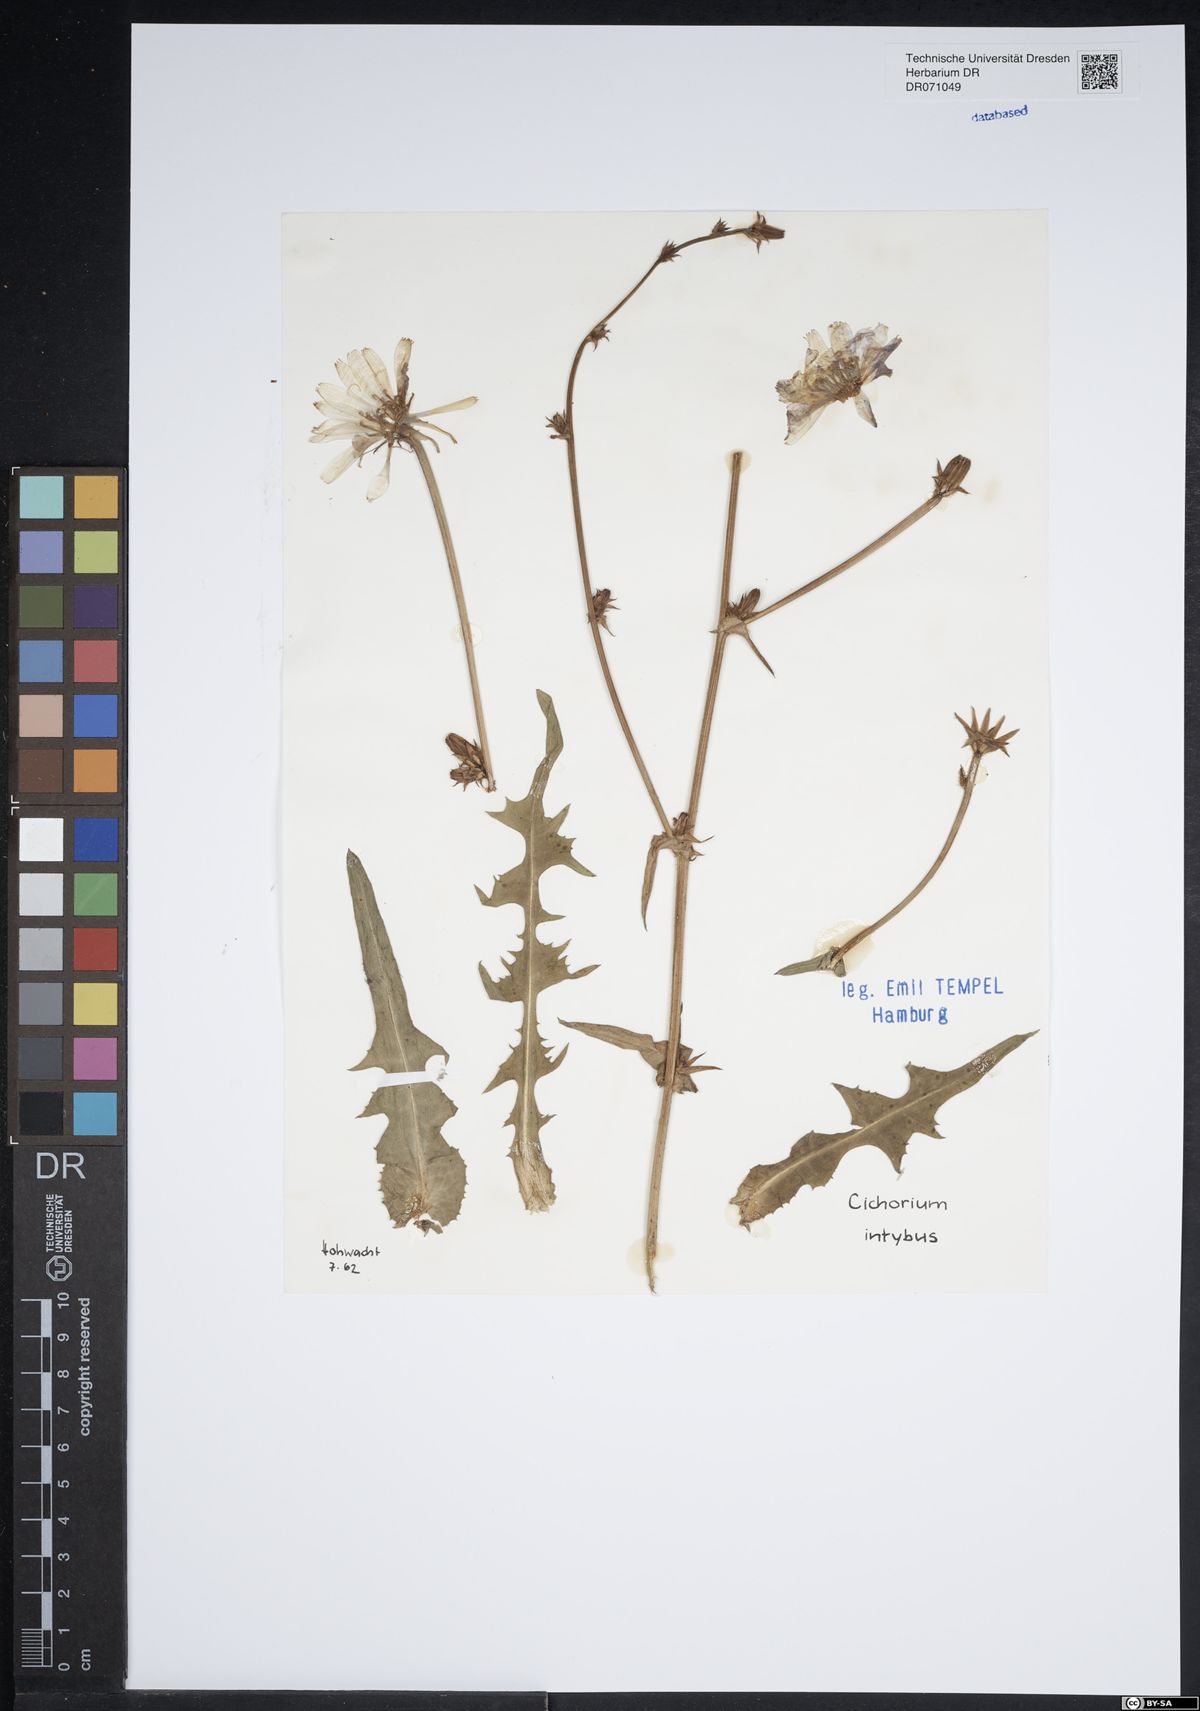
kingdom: Plantae
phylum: Tracheophyta
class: Magnoliopsida
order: Asterales
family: Asteraceae
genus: Cichorium
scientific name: Cichorium intybus
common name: Chicory
